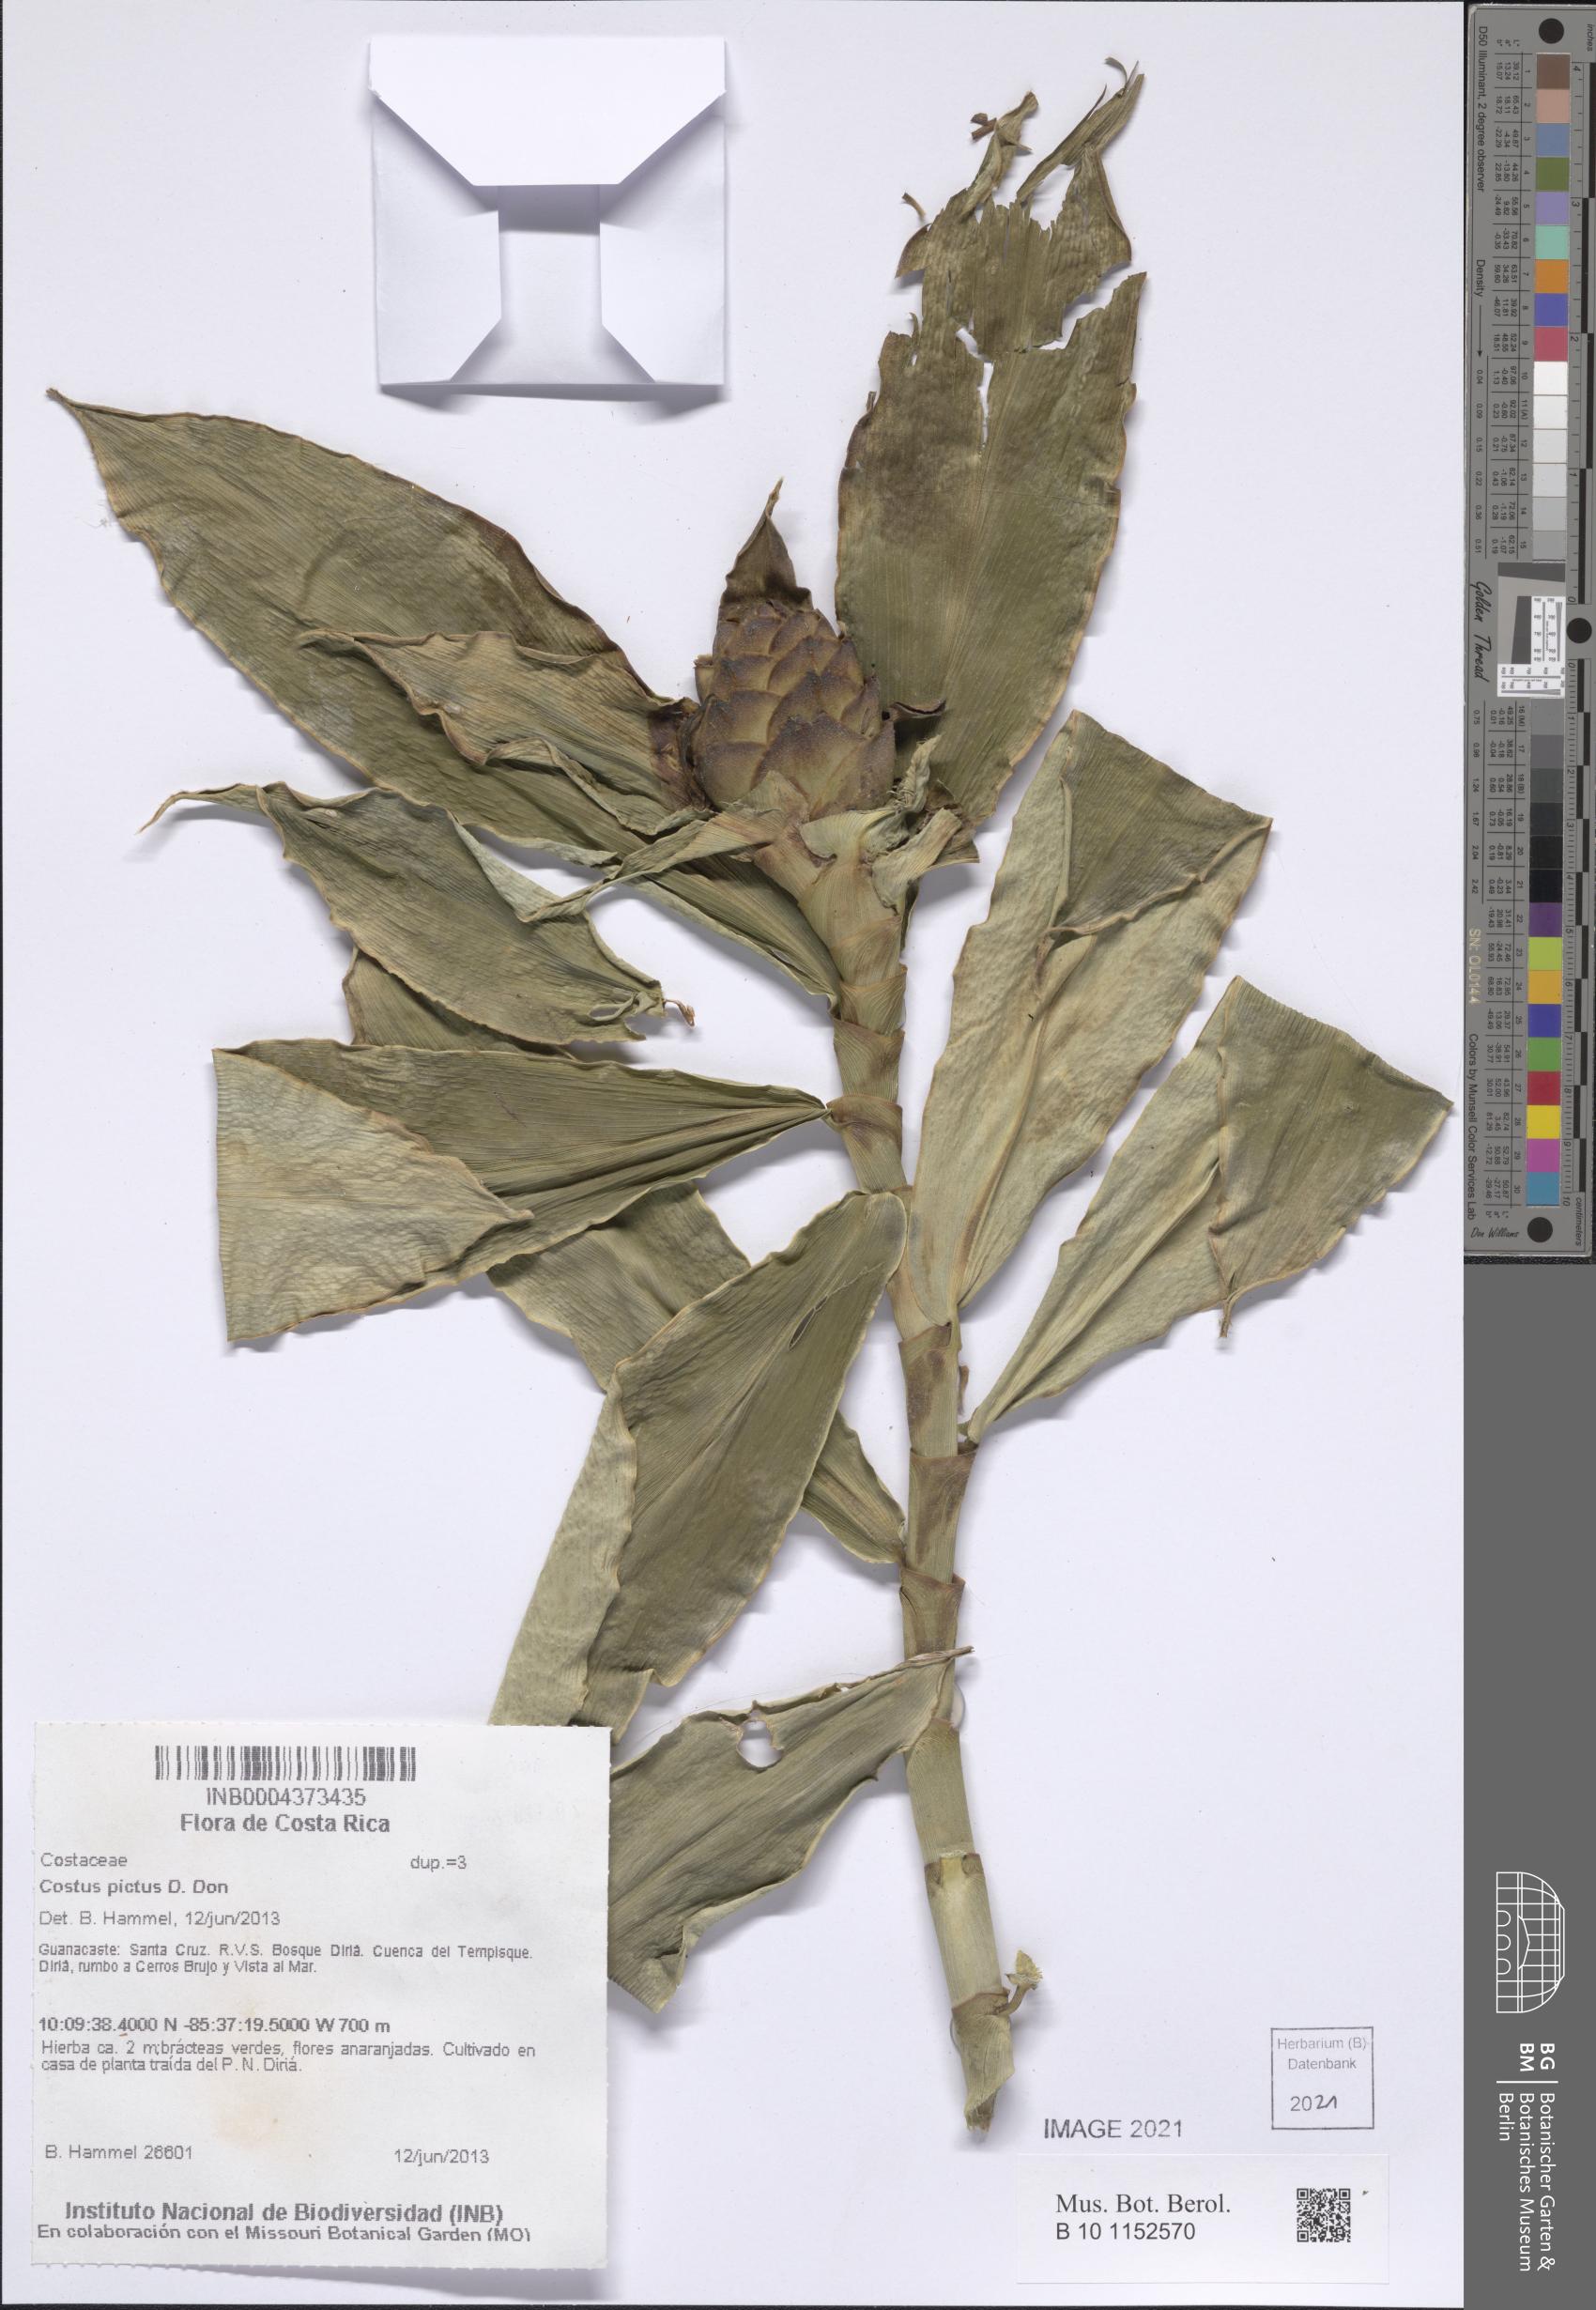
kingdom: Plantae
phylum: Tracheophyta
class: Liliopsida
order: Zingiberales
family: Costaceae
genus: Costus
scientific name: Costus pictus
